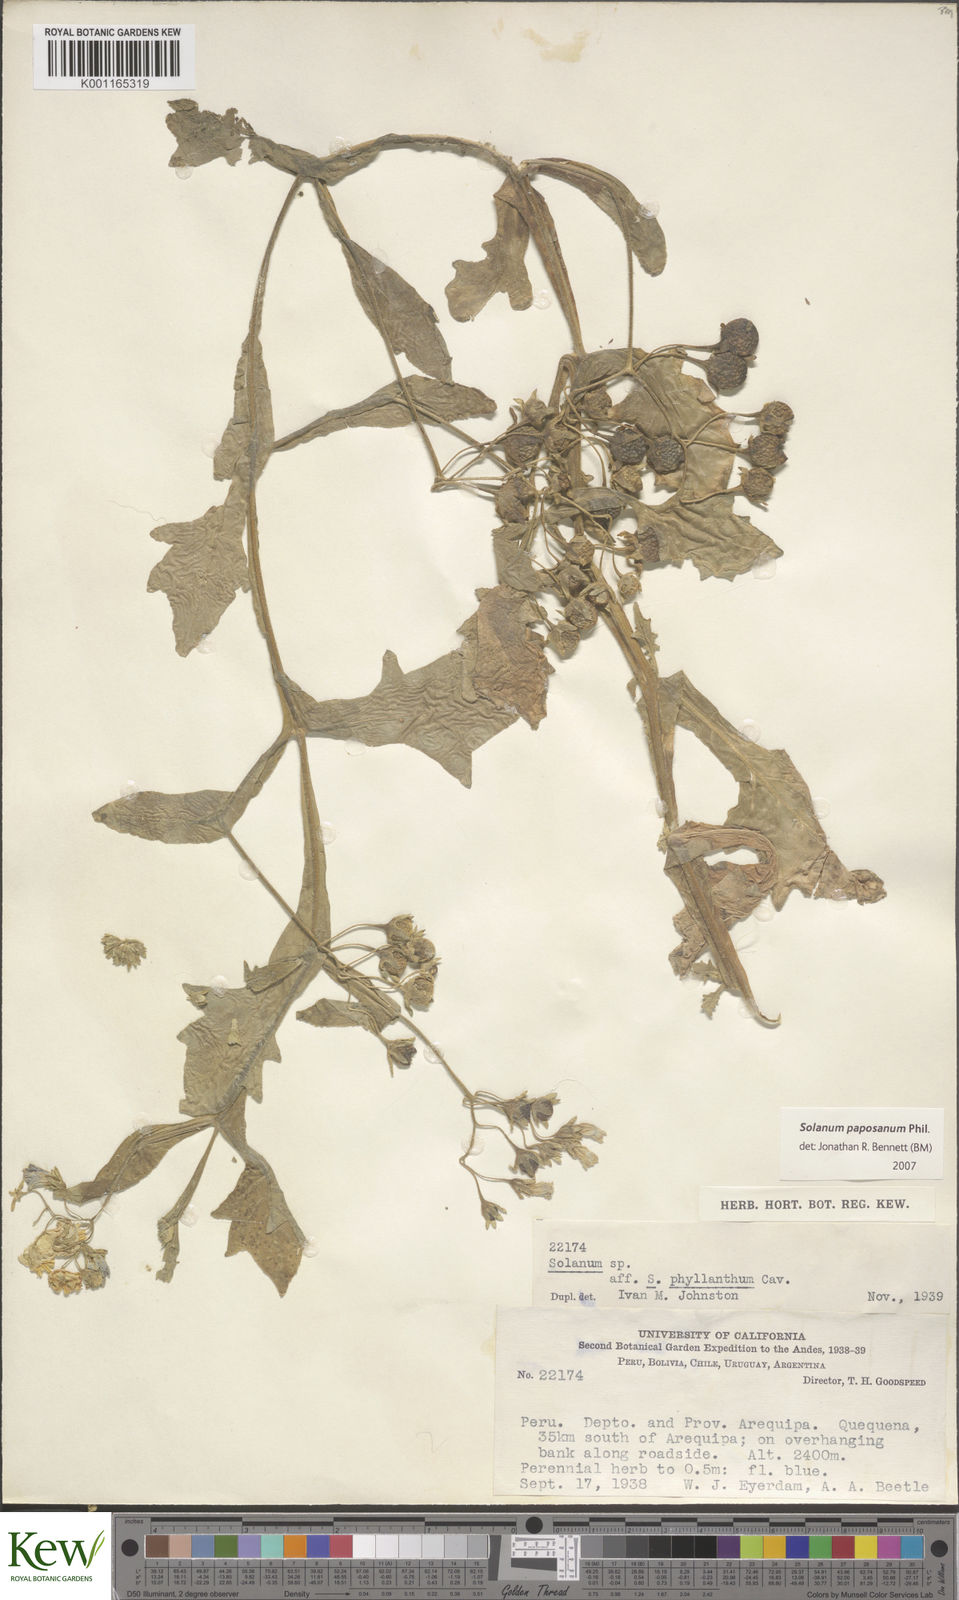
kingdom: Plantae
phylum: Tracheophyta
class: Magnoliopsida
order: Solanales
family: Solanaceae
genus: Solanum
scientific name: Solanum paposanum
